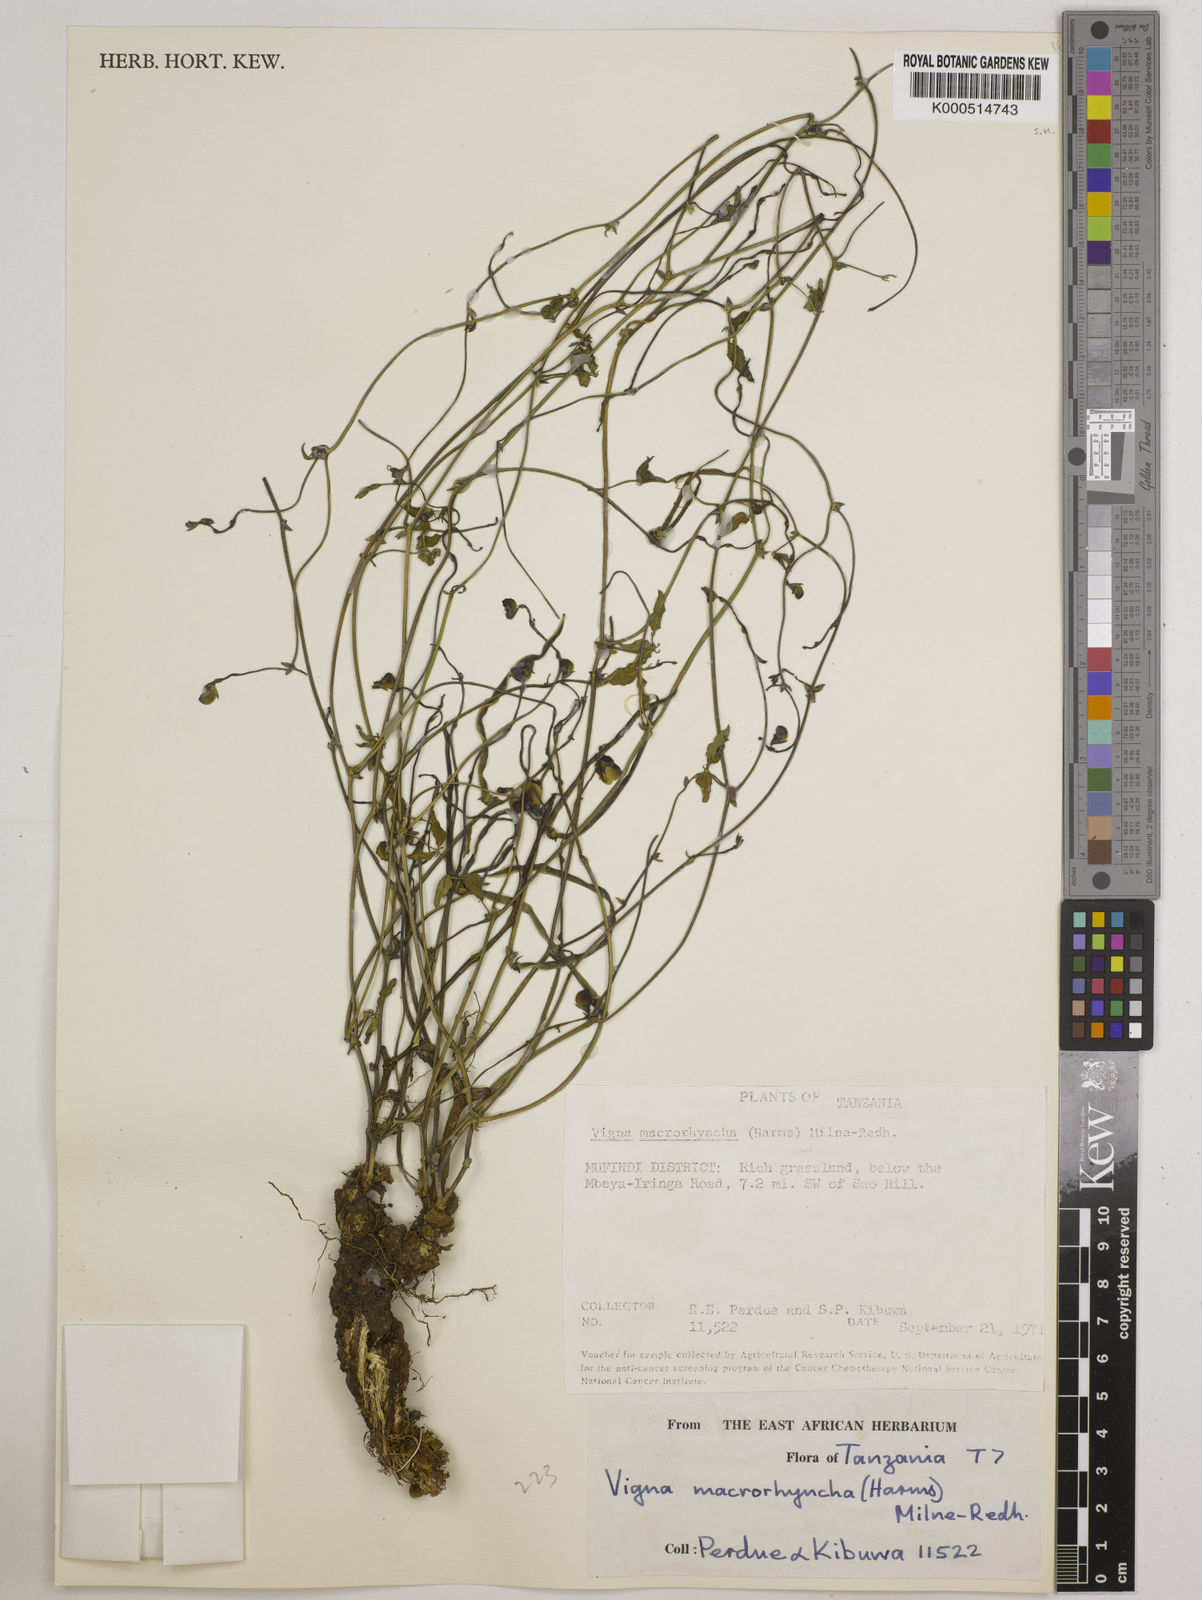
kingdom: Plantae
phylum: Tracheophyta
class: Magnoliopsida
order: Fabales
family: Fabaceae
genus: Wajira
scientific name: Wajira grahamiana
